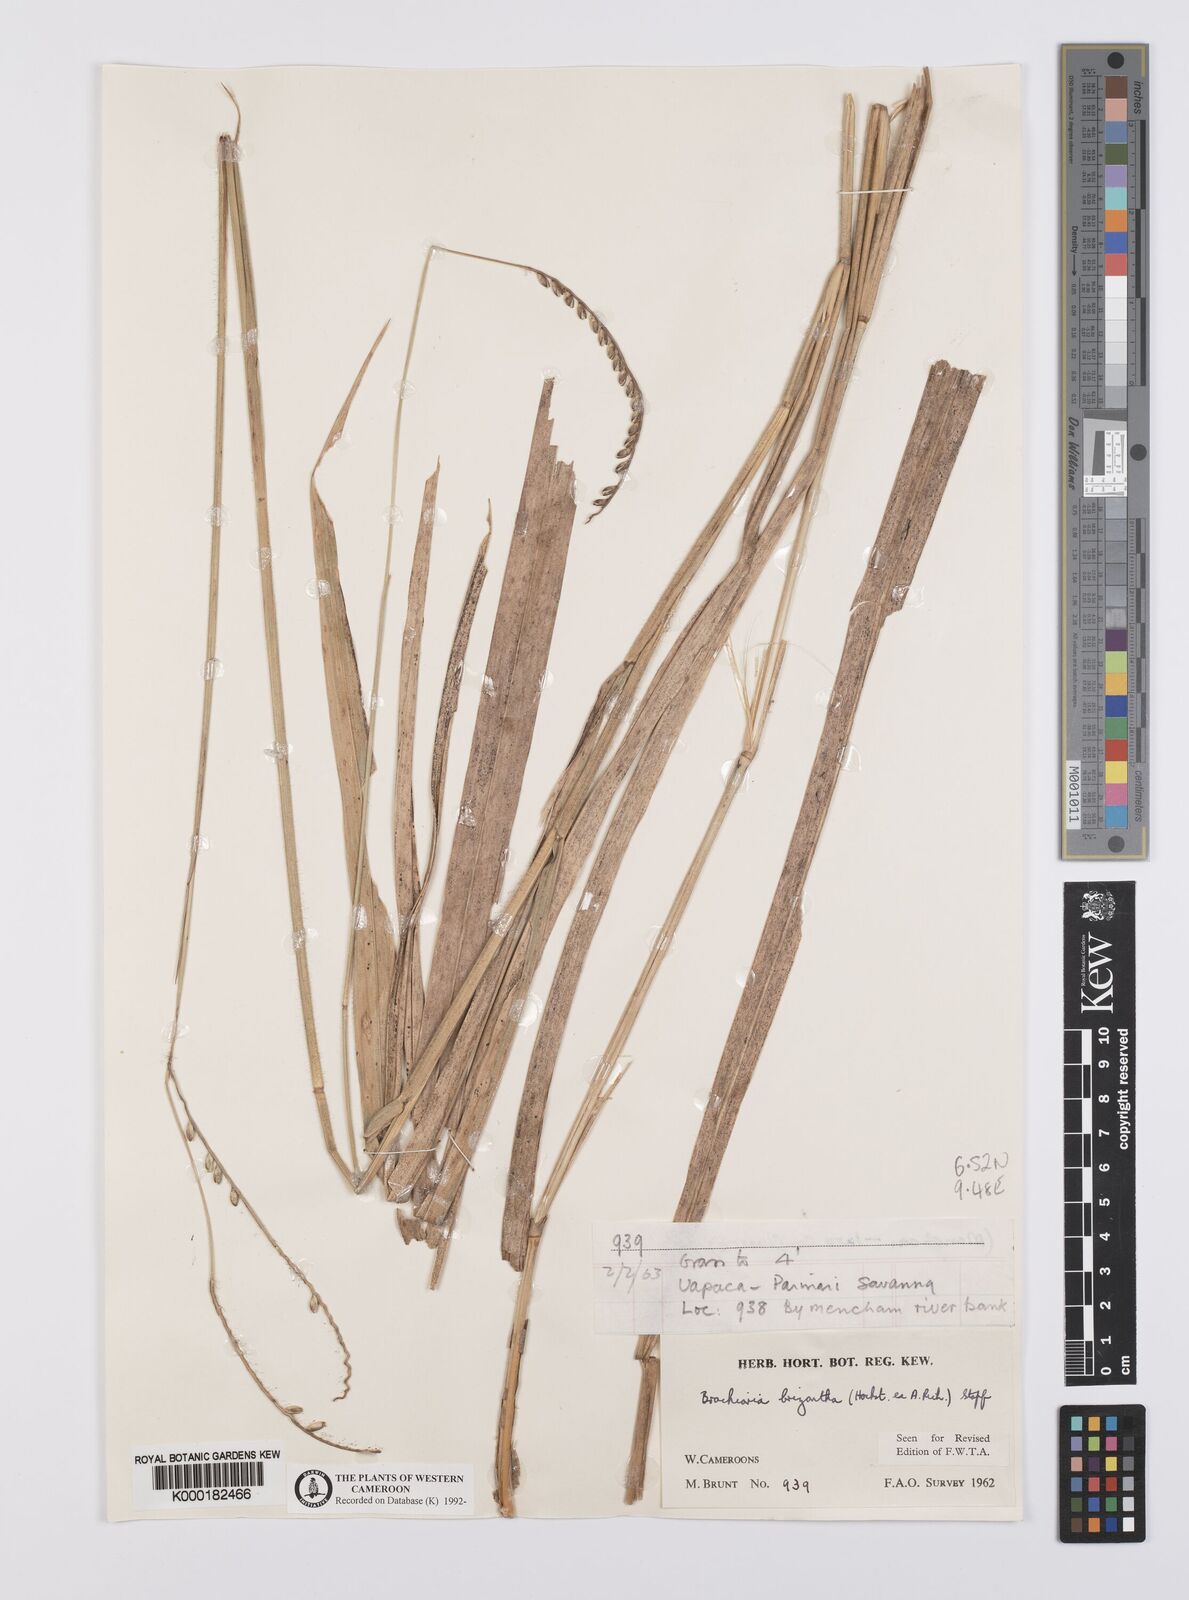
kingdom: Plantae
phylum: Tracheophyta
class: Liliopsida
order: Poales
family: Poaceae
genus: Urochloa
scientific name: Urochloa brizantha
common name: Palisade signalgrass
